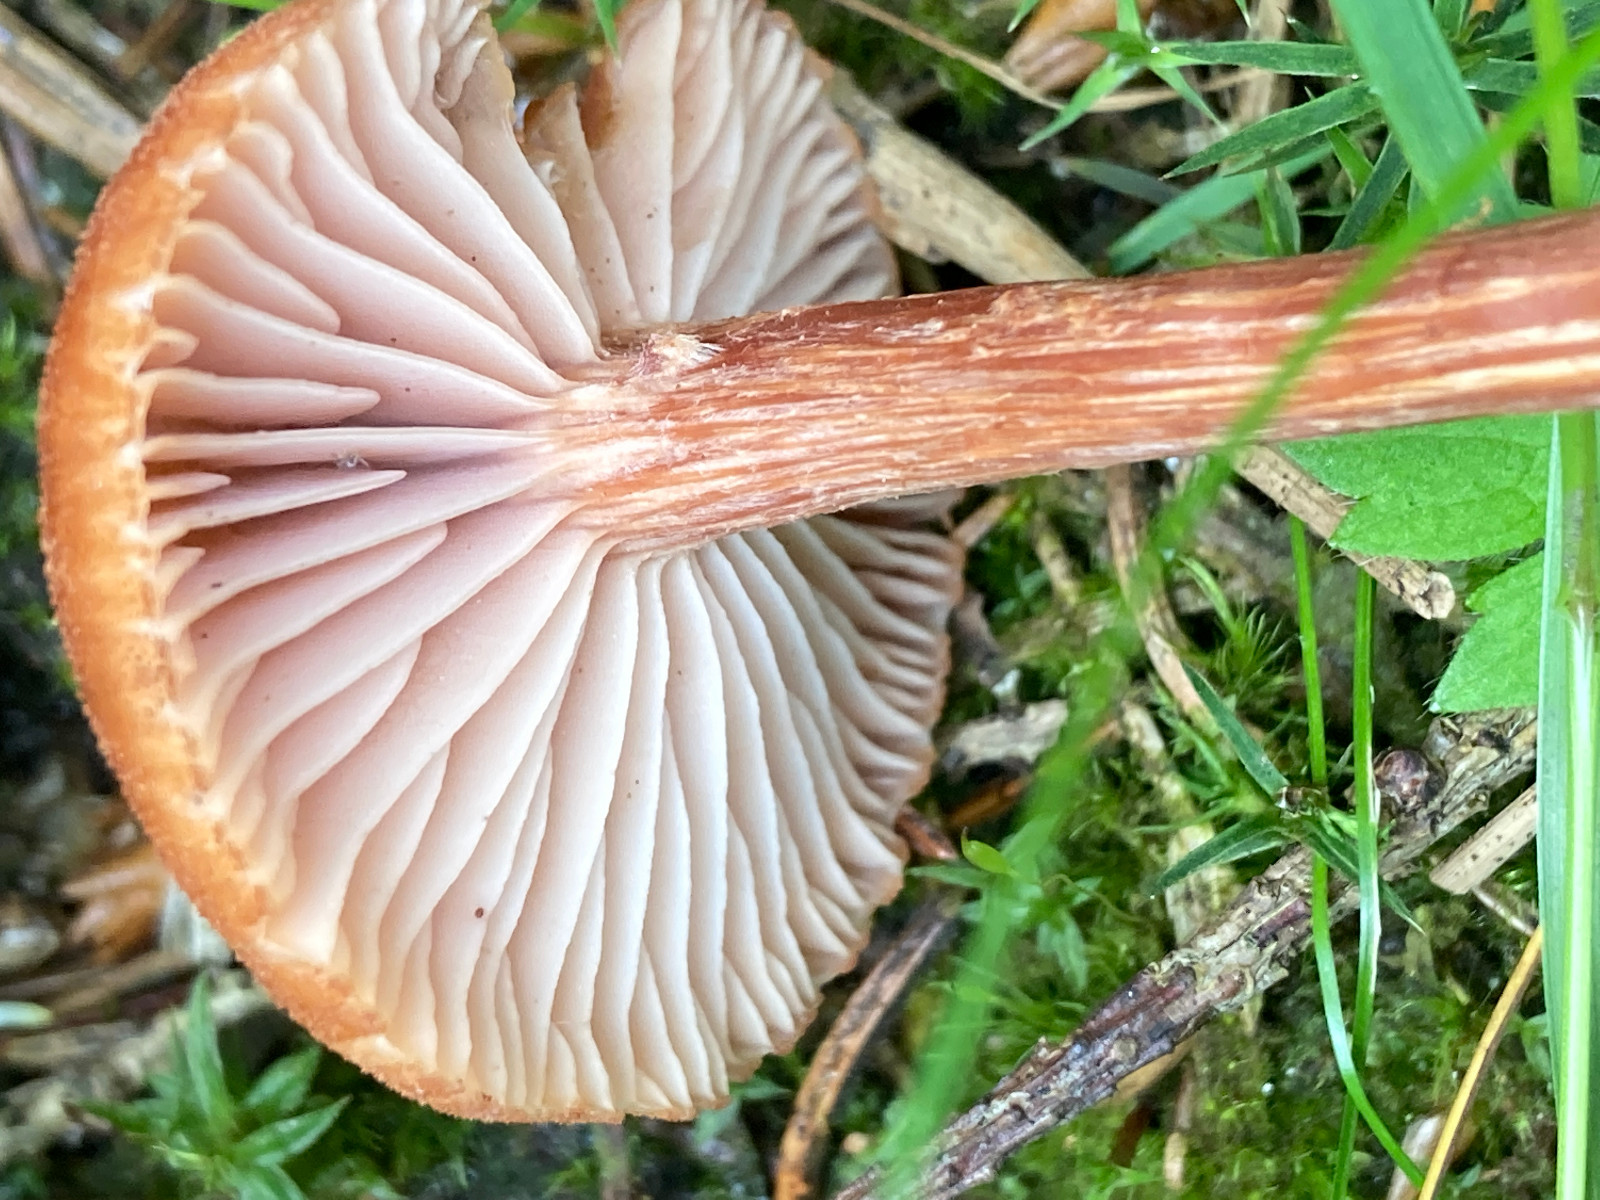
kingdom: Fungi
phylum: Basidiomycota
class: Agaricomycetes
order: Agaricales
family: Hydnangiaceae
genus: Laccaria
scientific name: Laccaria proxima
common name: stor ametysthat
